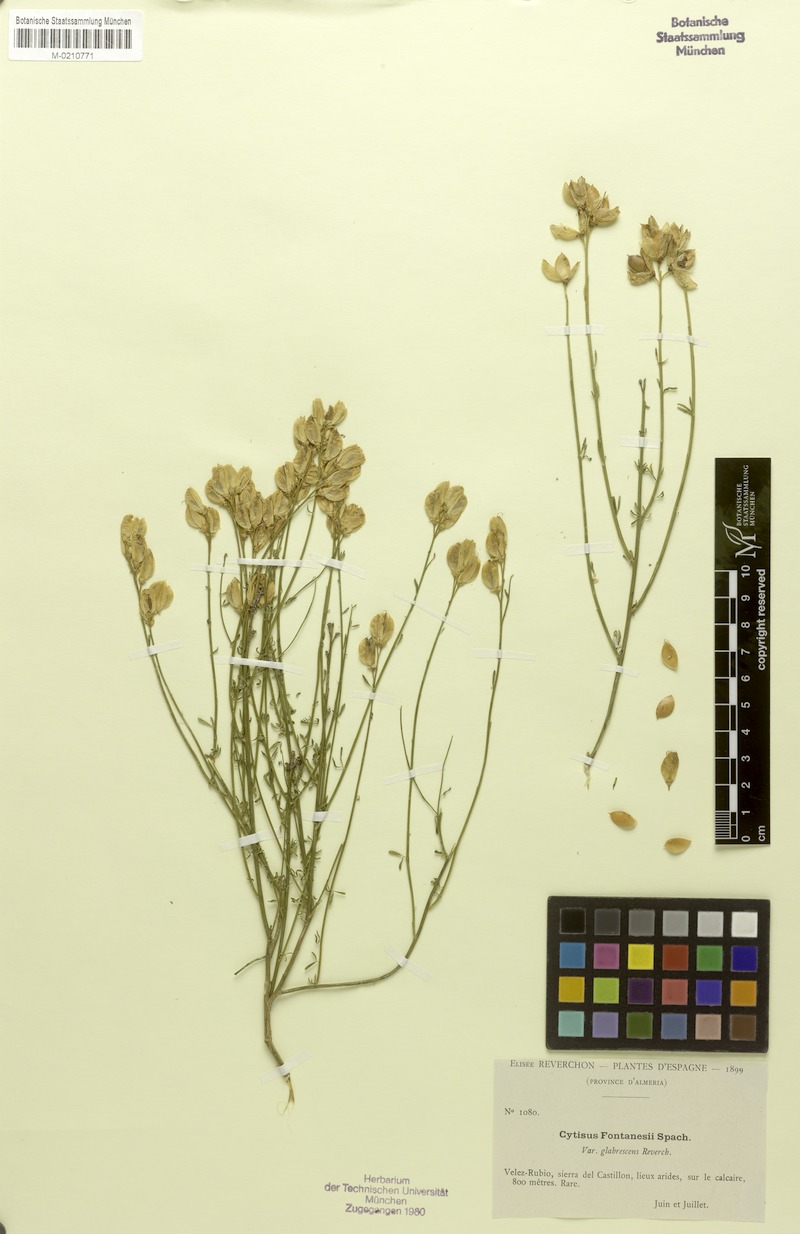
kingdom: Plantae
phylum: Tracheophyta
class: Magnoliopsida
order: Fabales
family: Fabaceae
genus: Cytisus
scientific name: Cytisus fontanesii
